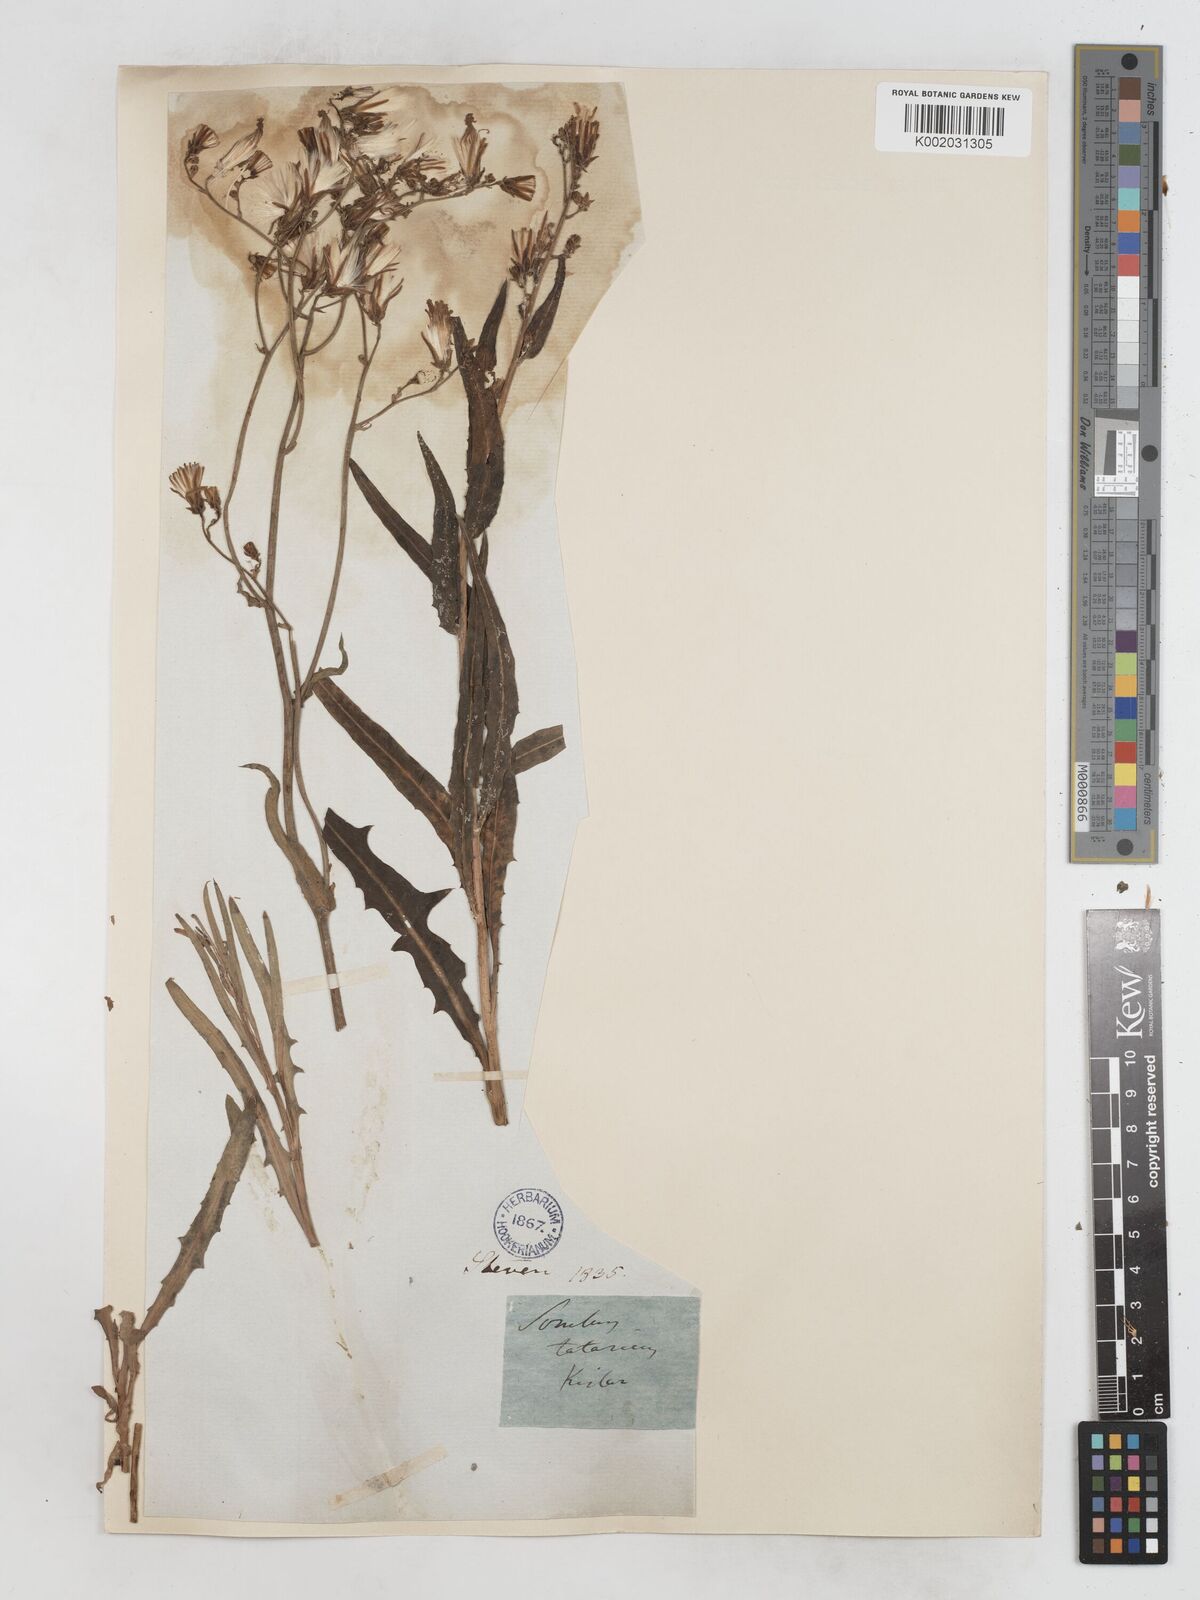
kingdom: Plantae
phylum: Tracheophyta
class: Magnoliopsida
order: Asterales
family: Asteraceae
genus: Lactuca
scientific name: Lactuca tatarica
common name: Blue lettuce
